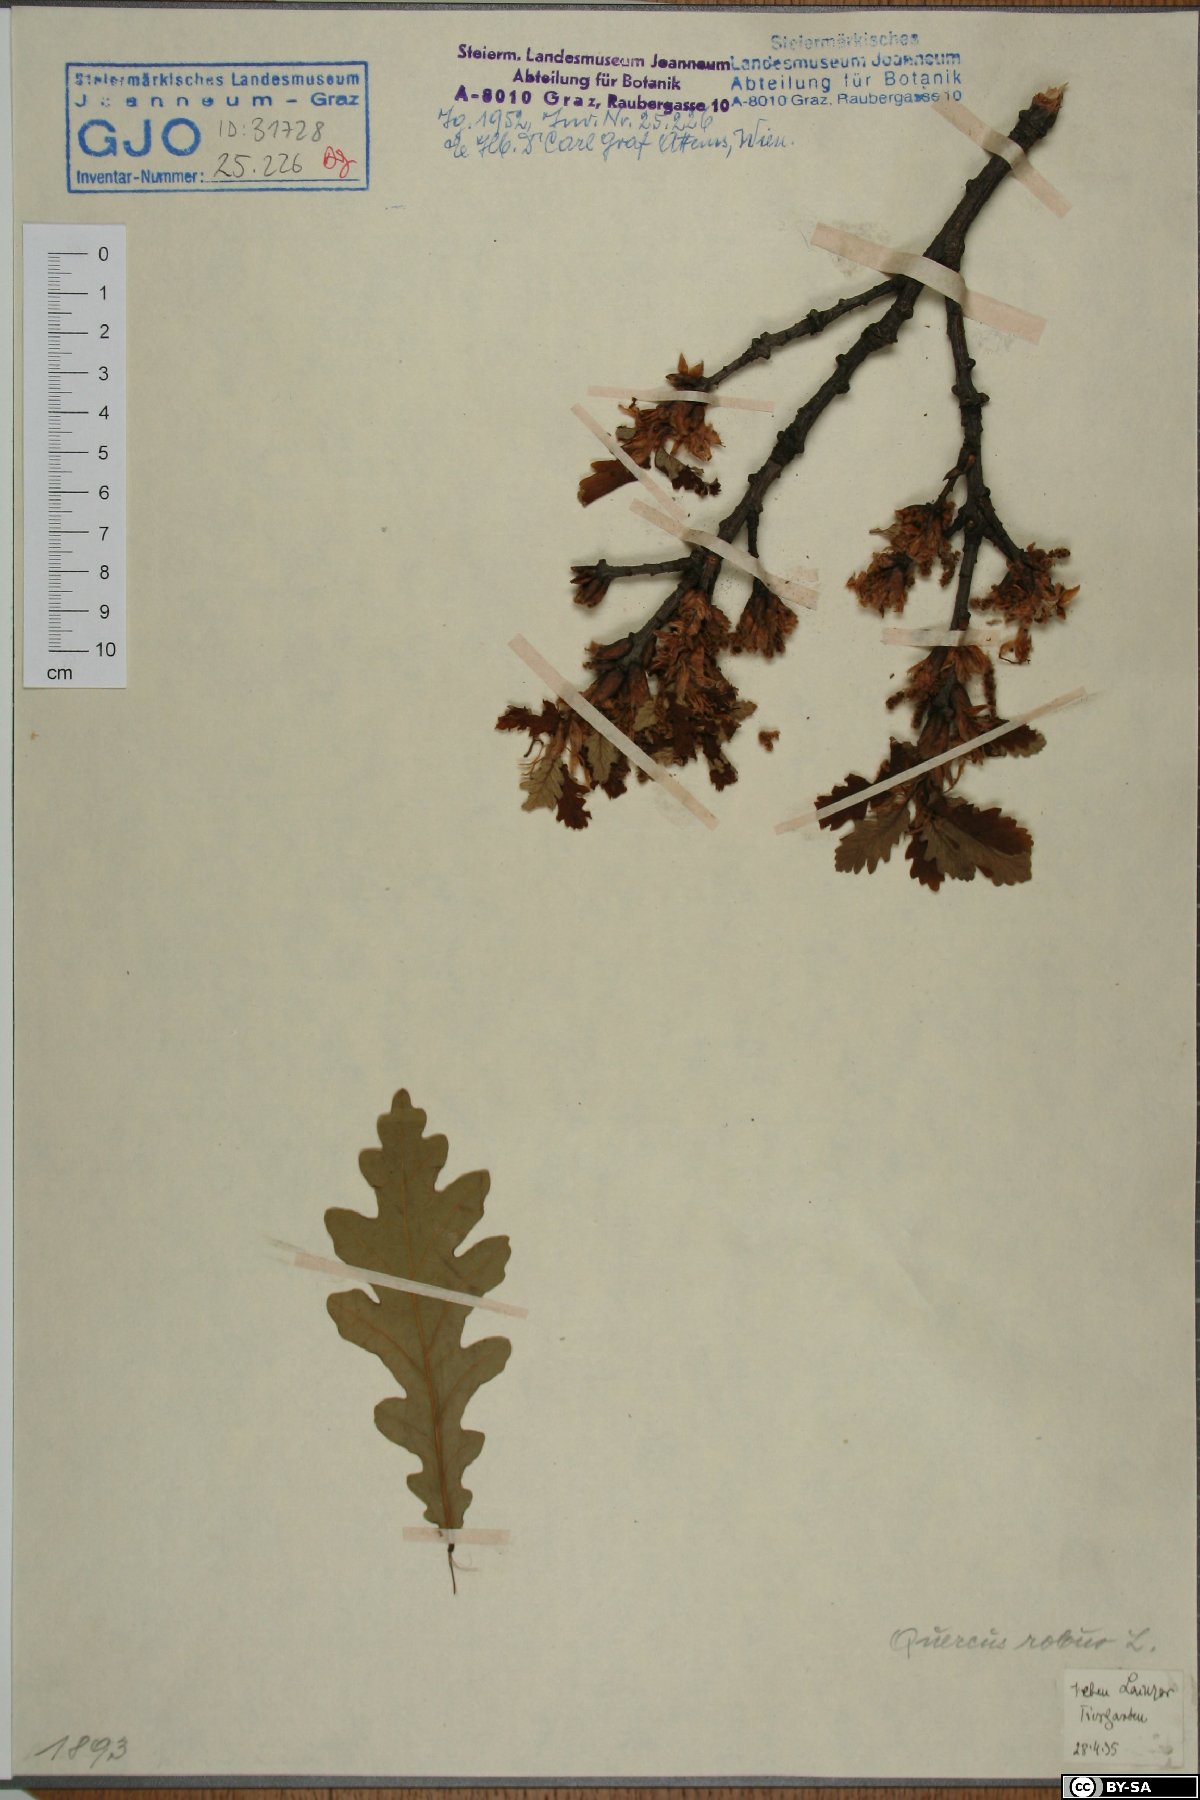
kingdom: Plantae
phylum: Tracheophyta
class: Magnoliopsida
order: Fagales
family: Fagaceae
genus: Quercus
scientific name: Quercus robur
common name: Pedunculate oak
